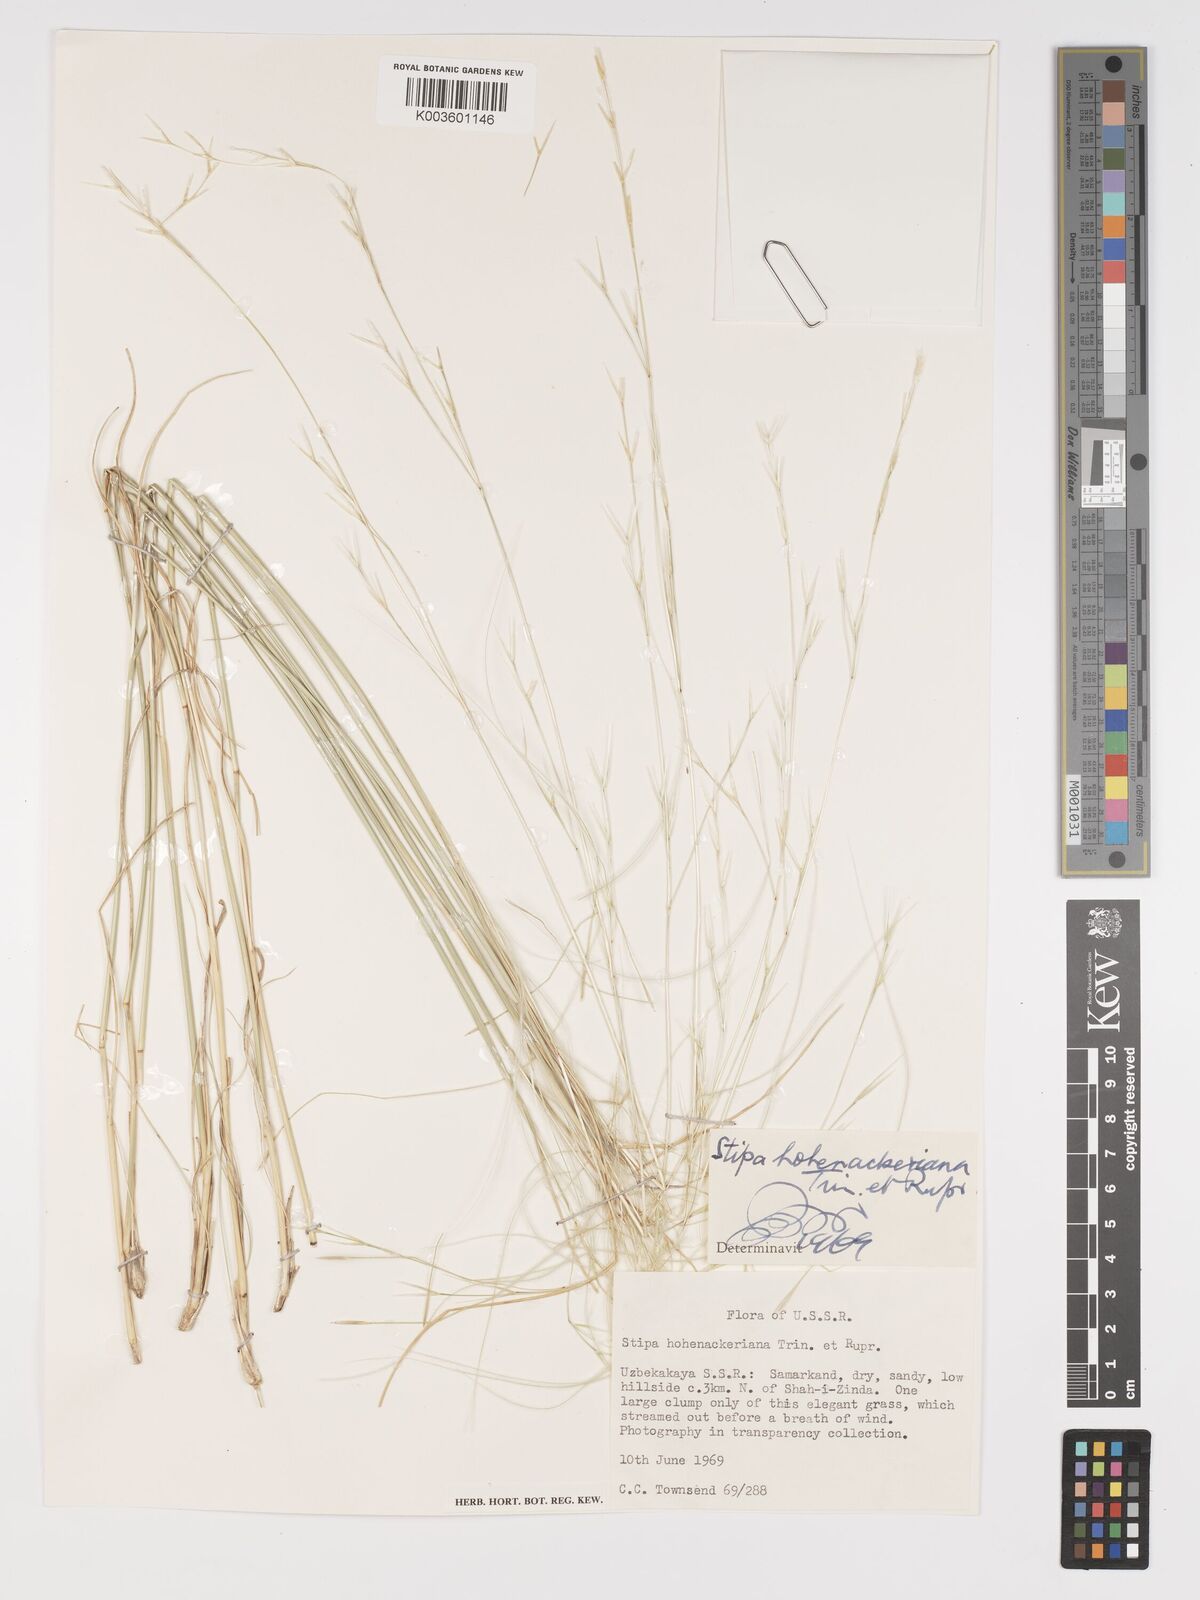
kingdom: Plantae
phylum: Tracheophyta
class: Liliopsida
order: Poales
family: Poaceae
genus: Stipa
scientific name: Stipa hohenackeriana
